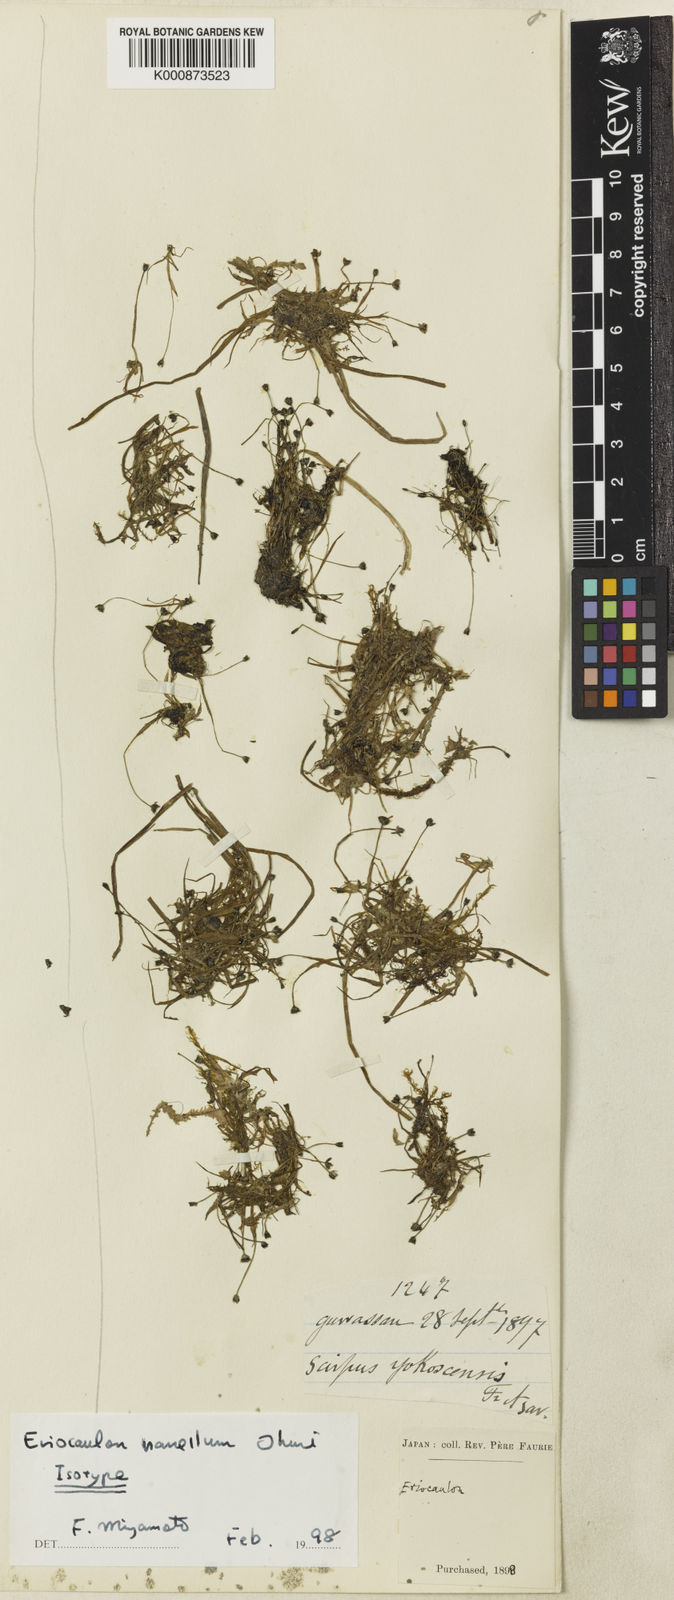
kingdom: Plantae
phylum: Tracheophyta
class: Liliopsida
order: Poales
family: Eriocaulaceae
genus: Eriocaulon
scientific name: Eriocaulon takae
